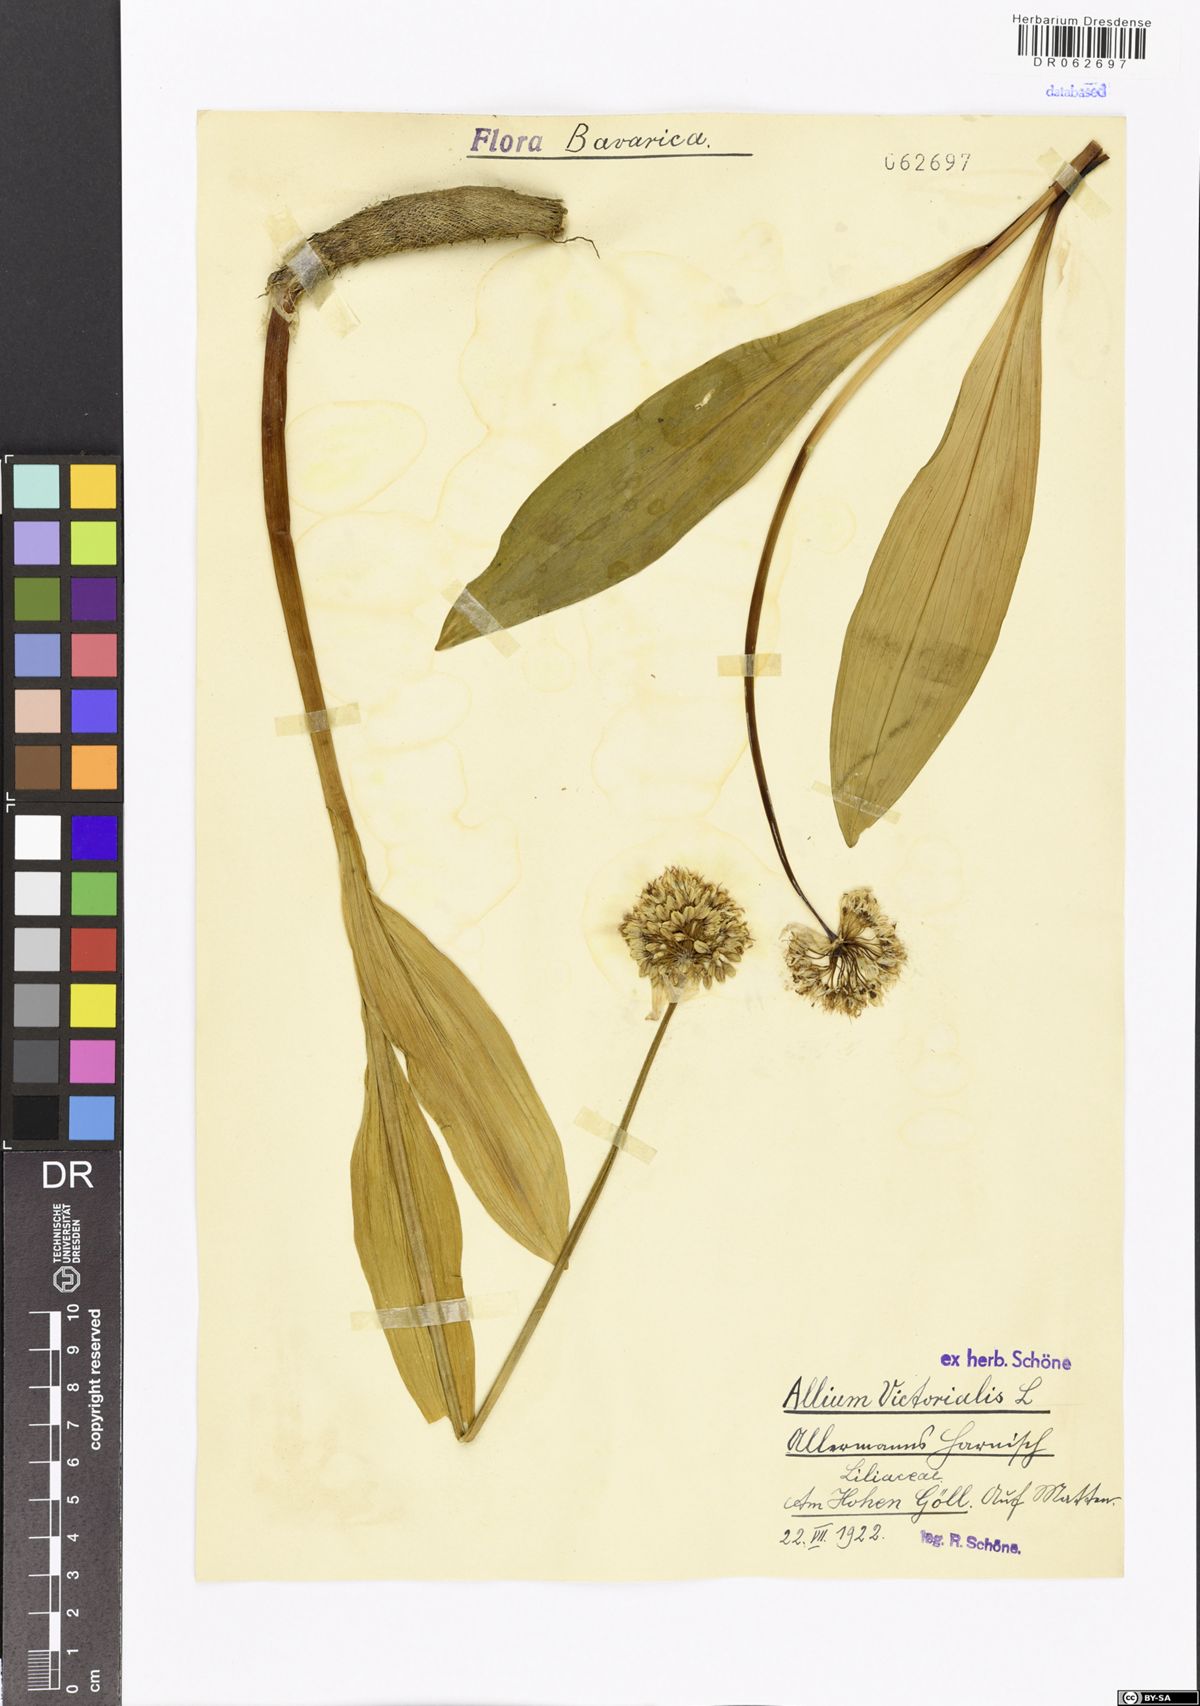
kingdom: Plantae
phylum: Tracheophyta
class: Liliopsida
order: Asparagales
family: Amaryllidaceae
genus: Allium
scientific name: Allium victorialis
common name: Alpine leek
